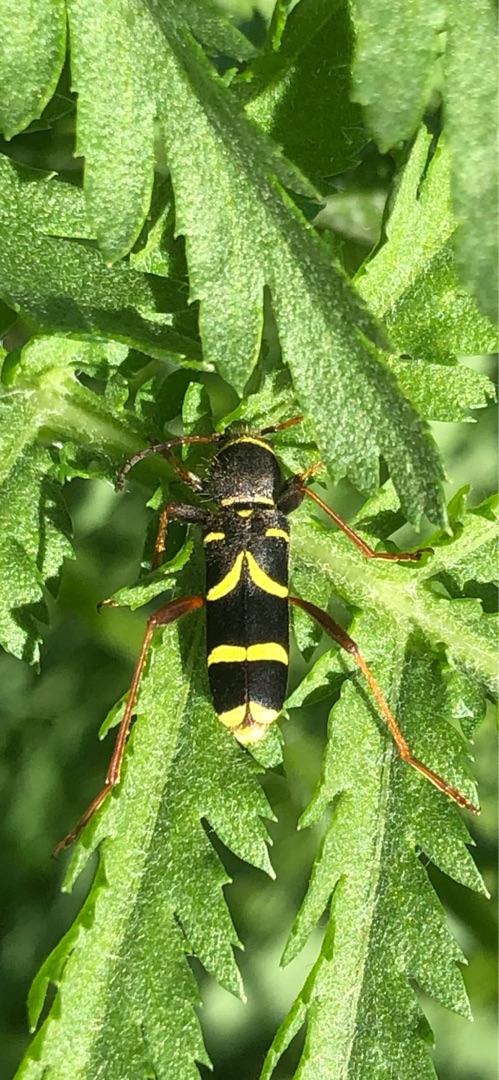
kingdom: Animalia
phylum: Arthropoda
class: Insecta
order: Coleoptera
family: Cerambycidae
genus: Clytus
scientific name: Clytus arietis
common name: Lille hvepsebuk
